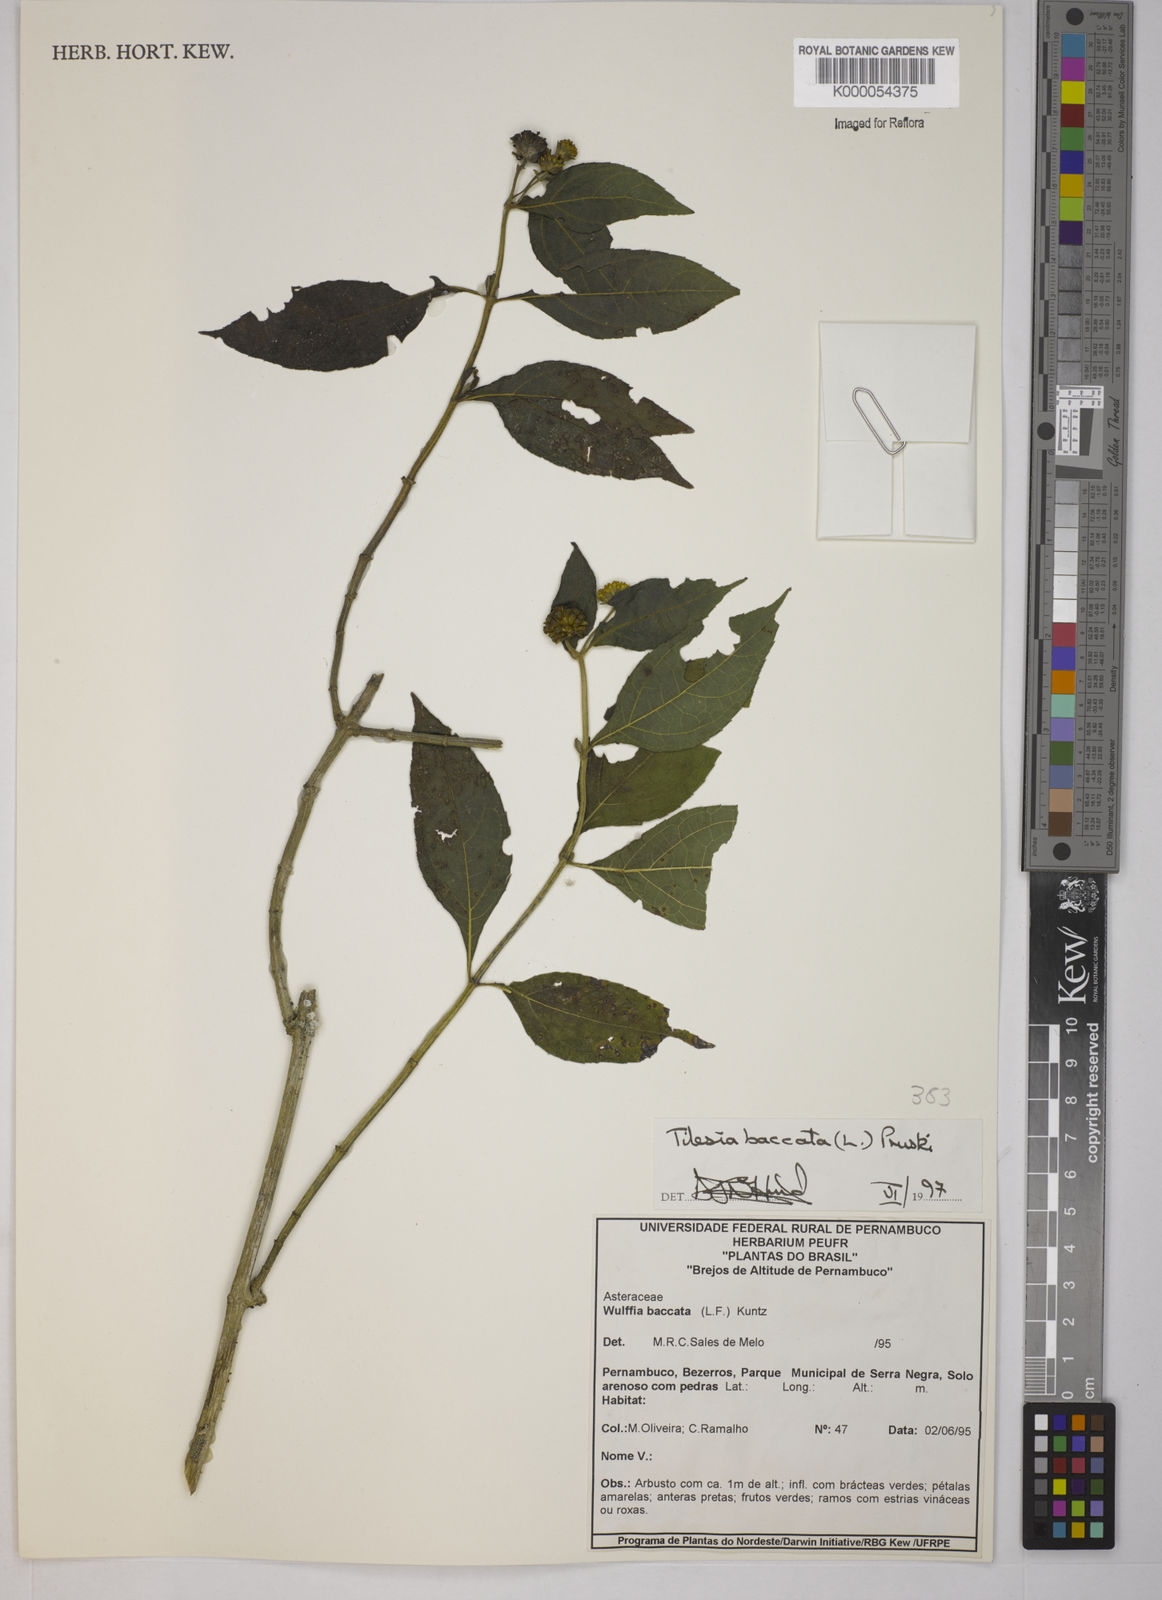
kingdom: Plantae
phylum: Tracheophyta
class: Magnoliopsida
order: Asterales
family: Asteraceae
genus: Tilesia
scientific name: Tilesia baccata
